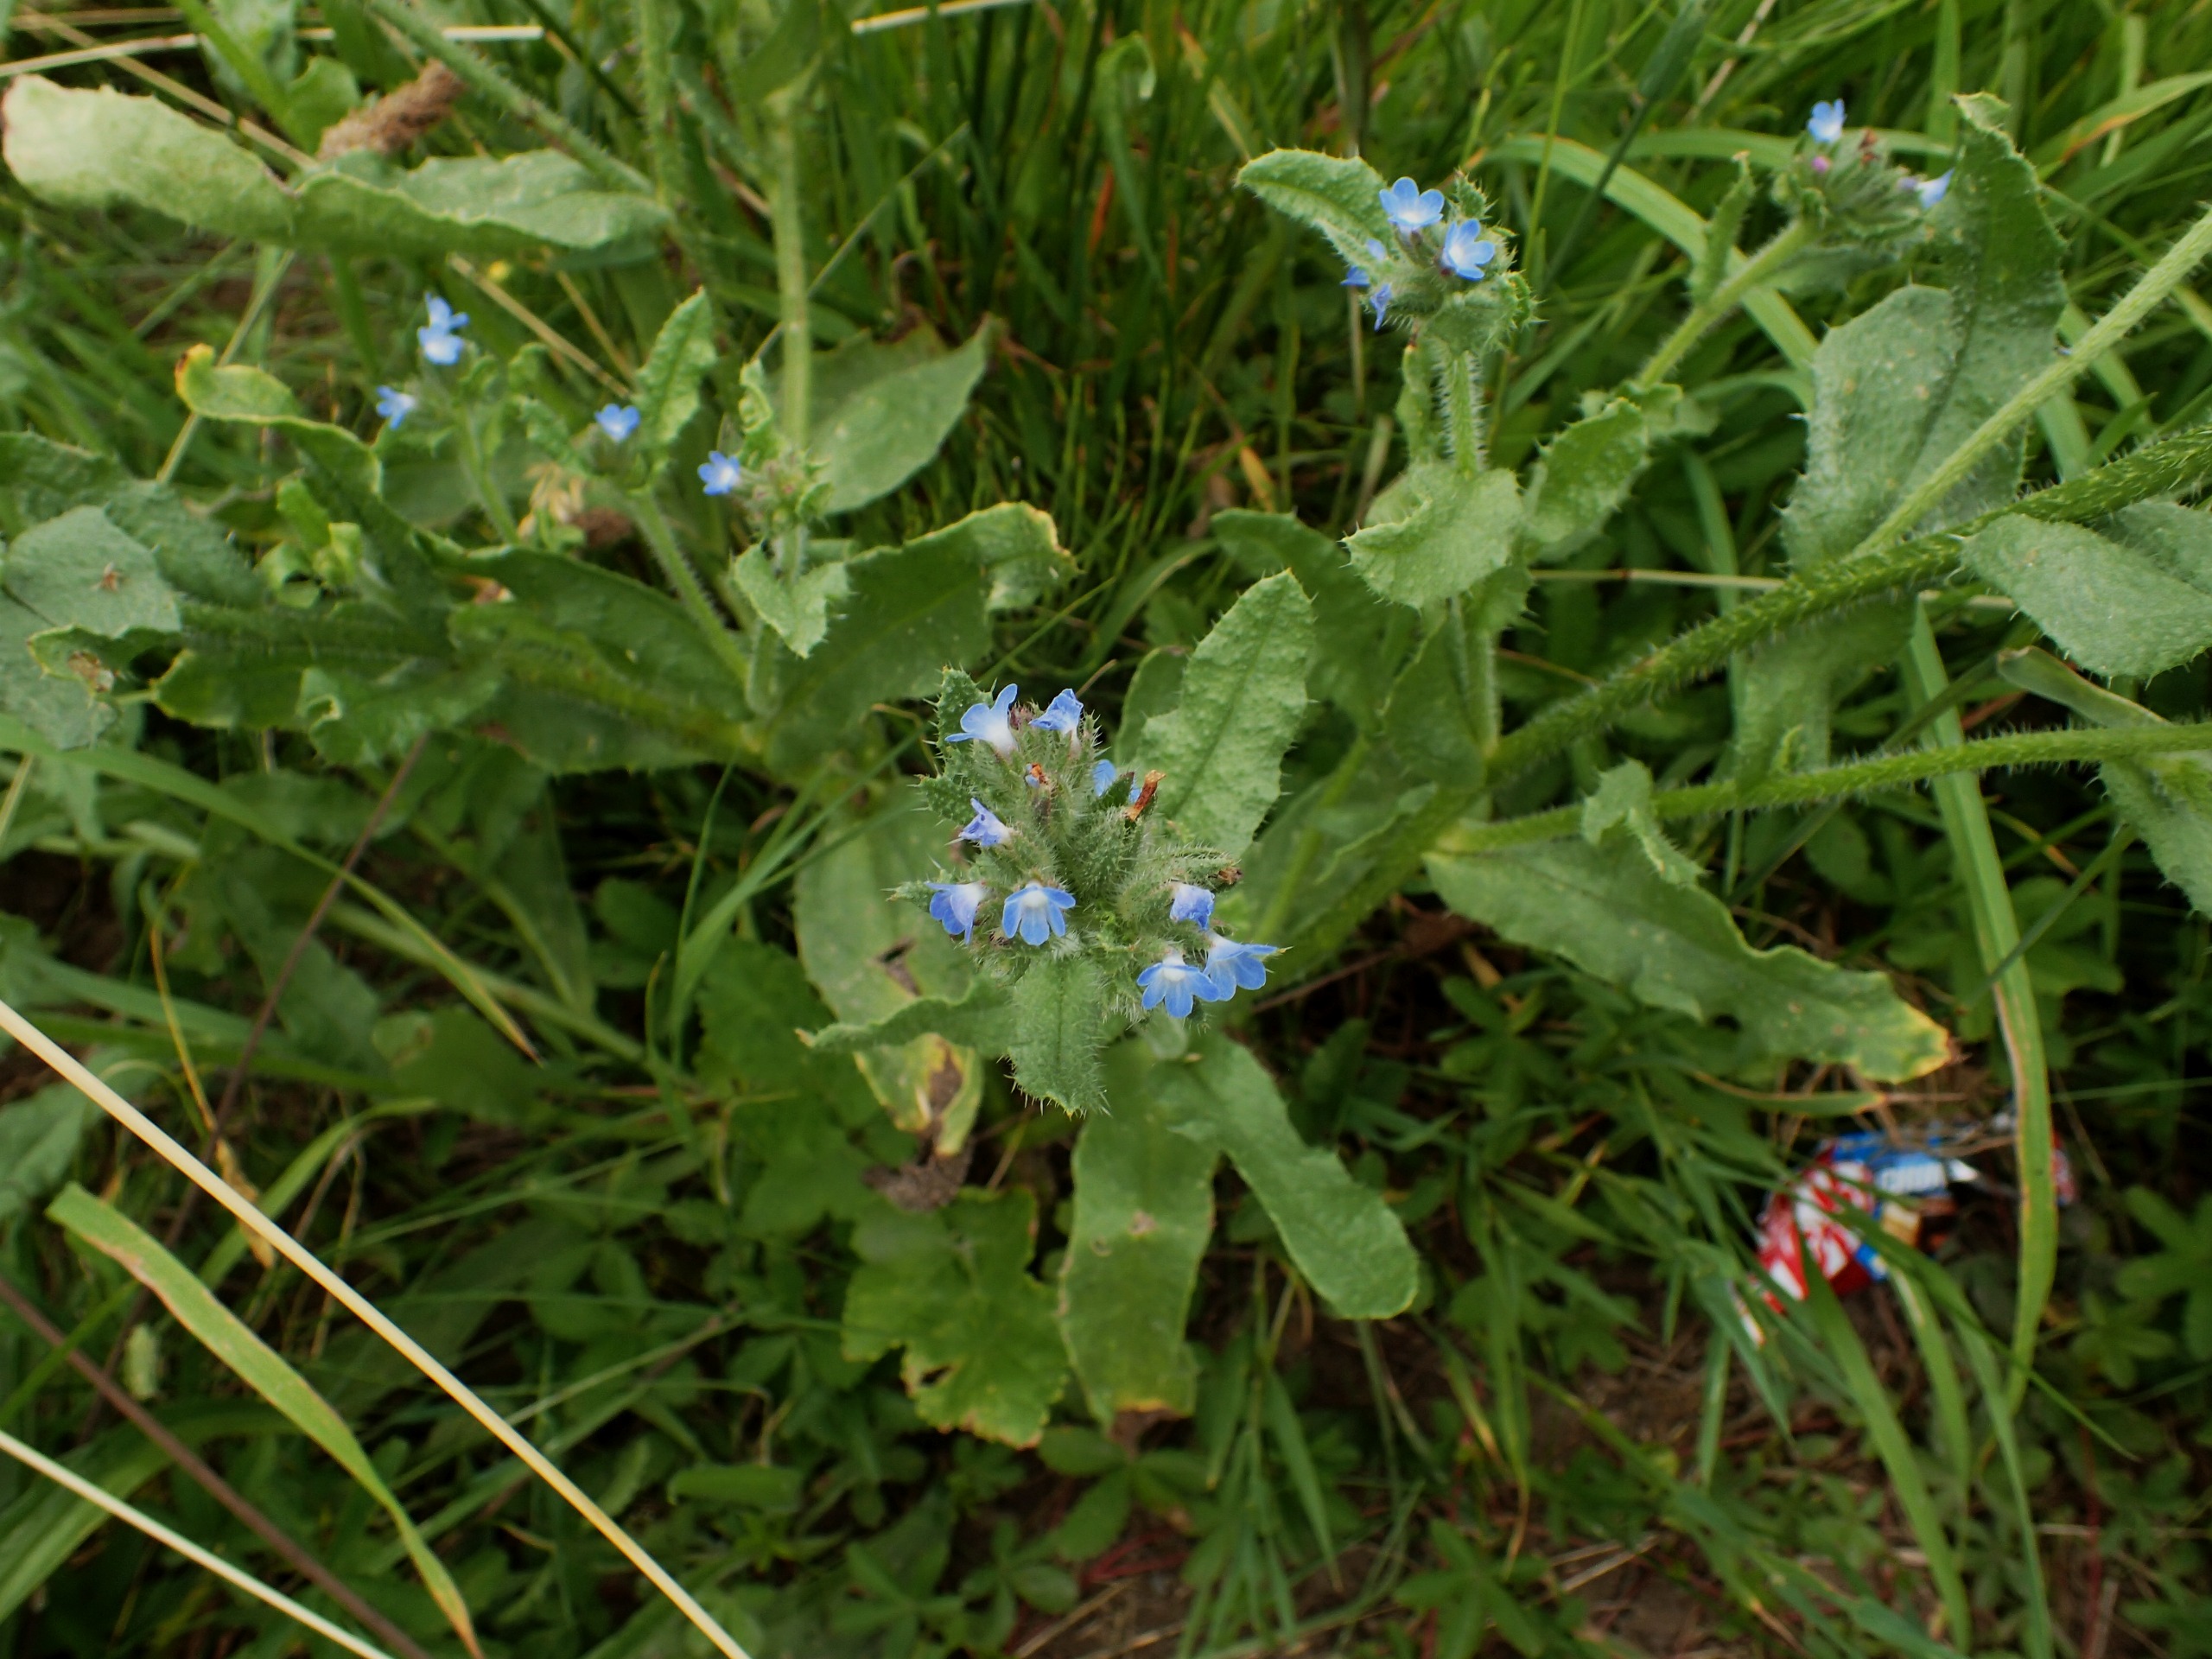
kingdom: Plantae
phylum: Tracheophyta
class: Magnoliopsida
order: Boraginales
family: Boraginaceae
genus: Lycopsis
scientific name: Lycopsis arvensis
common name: Krumhals
